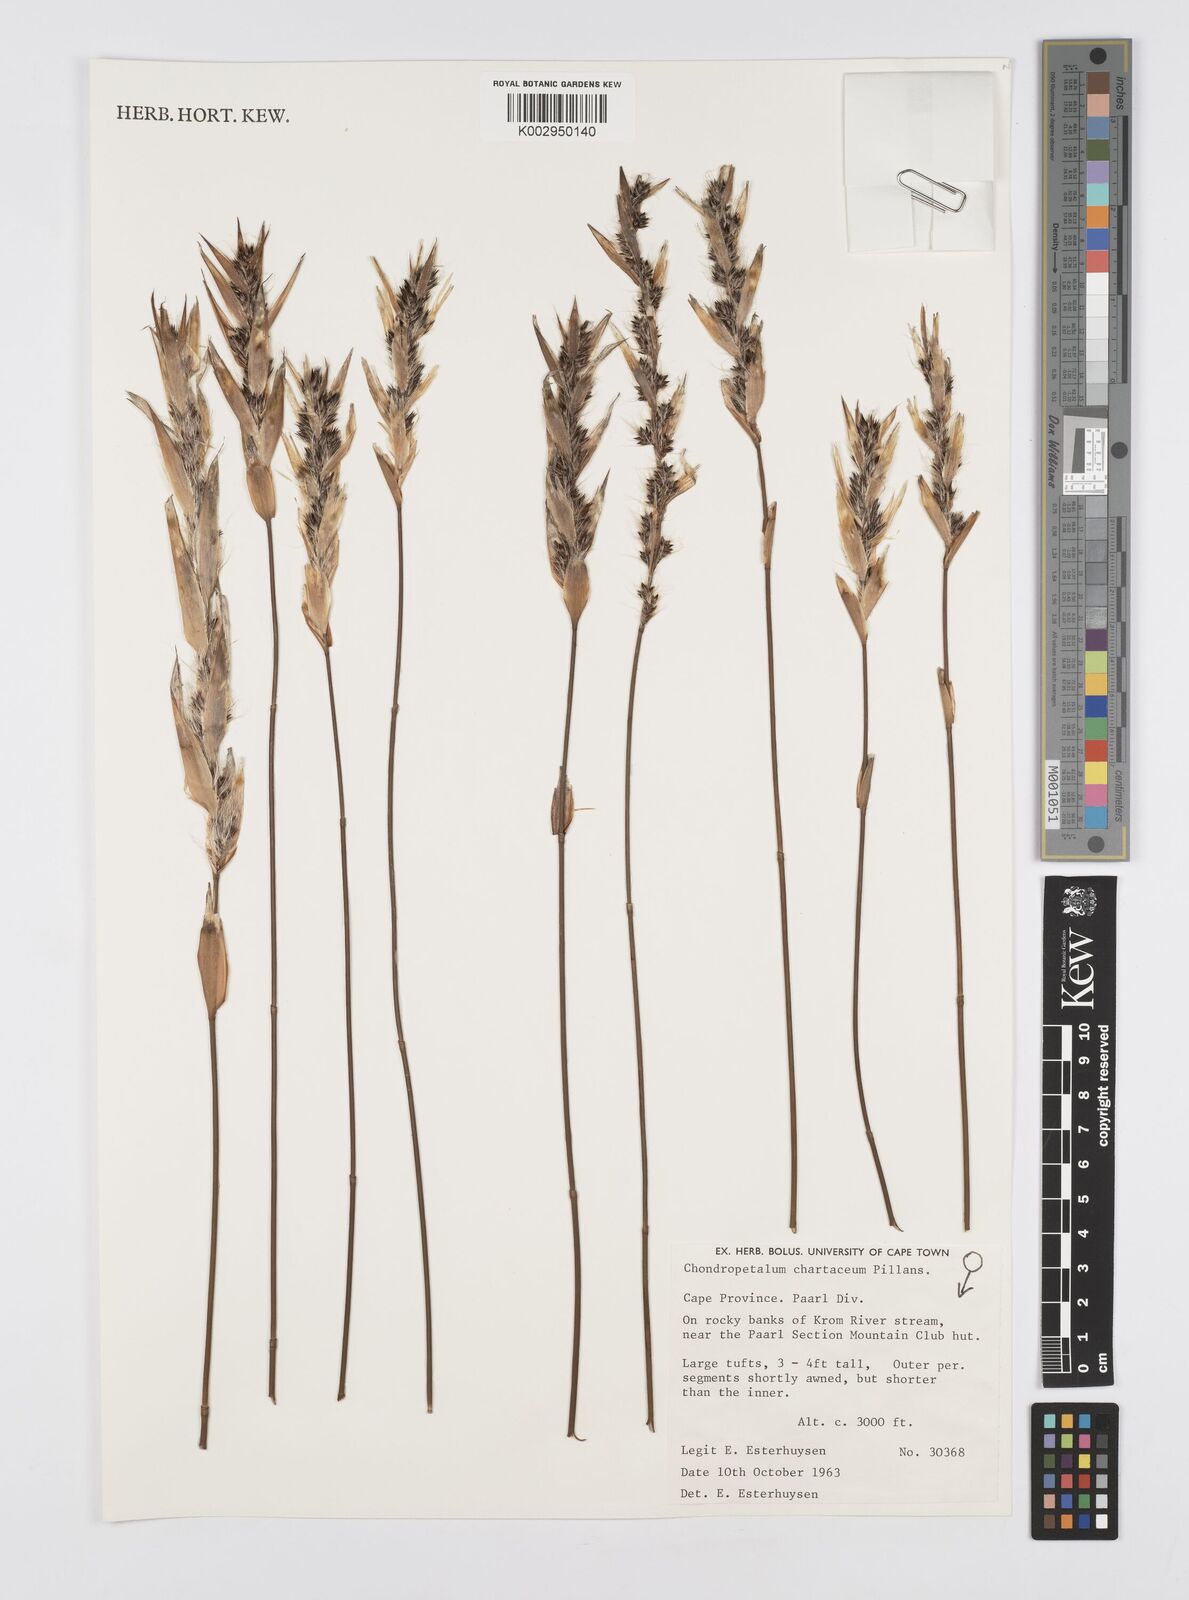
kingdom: Plantae
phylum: Tracheophyta
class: Liliopsida
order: Poales
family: Restionaceae
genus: Askidiosperma
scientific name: Askidiosperma chartaceum
